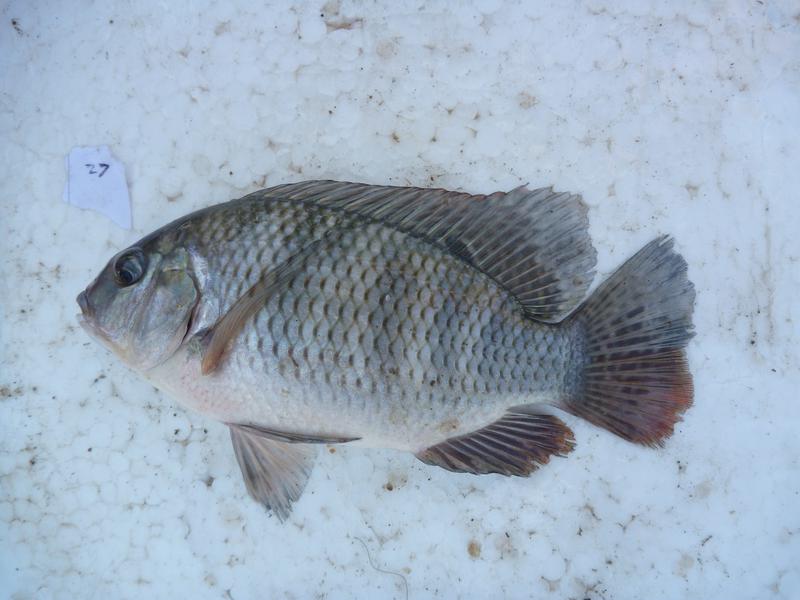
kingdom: Animalia
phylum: Chordata
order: Perciformes
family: Cichlidae
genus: Coptodon
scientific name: Coptodon rendalli
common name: Redbreast tilapia
